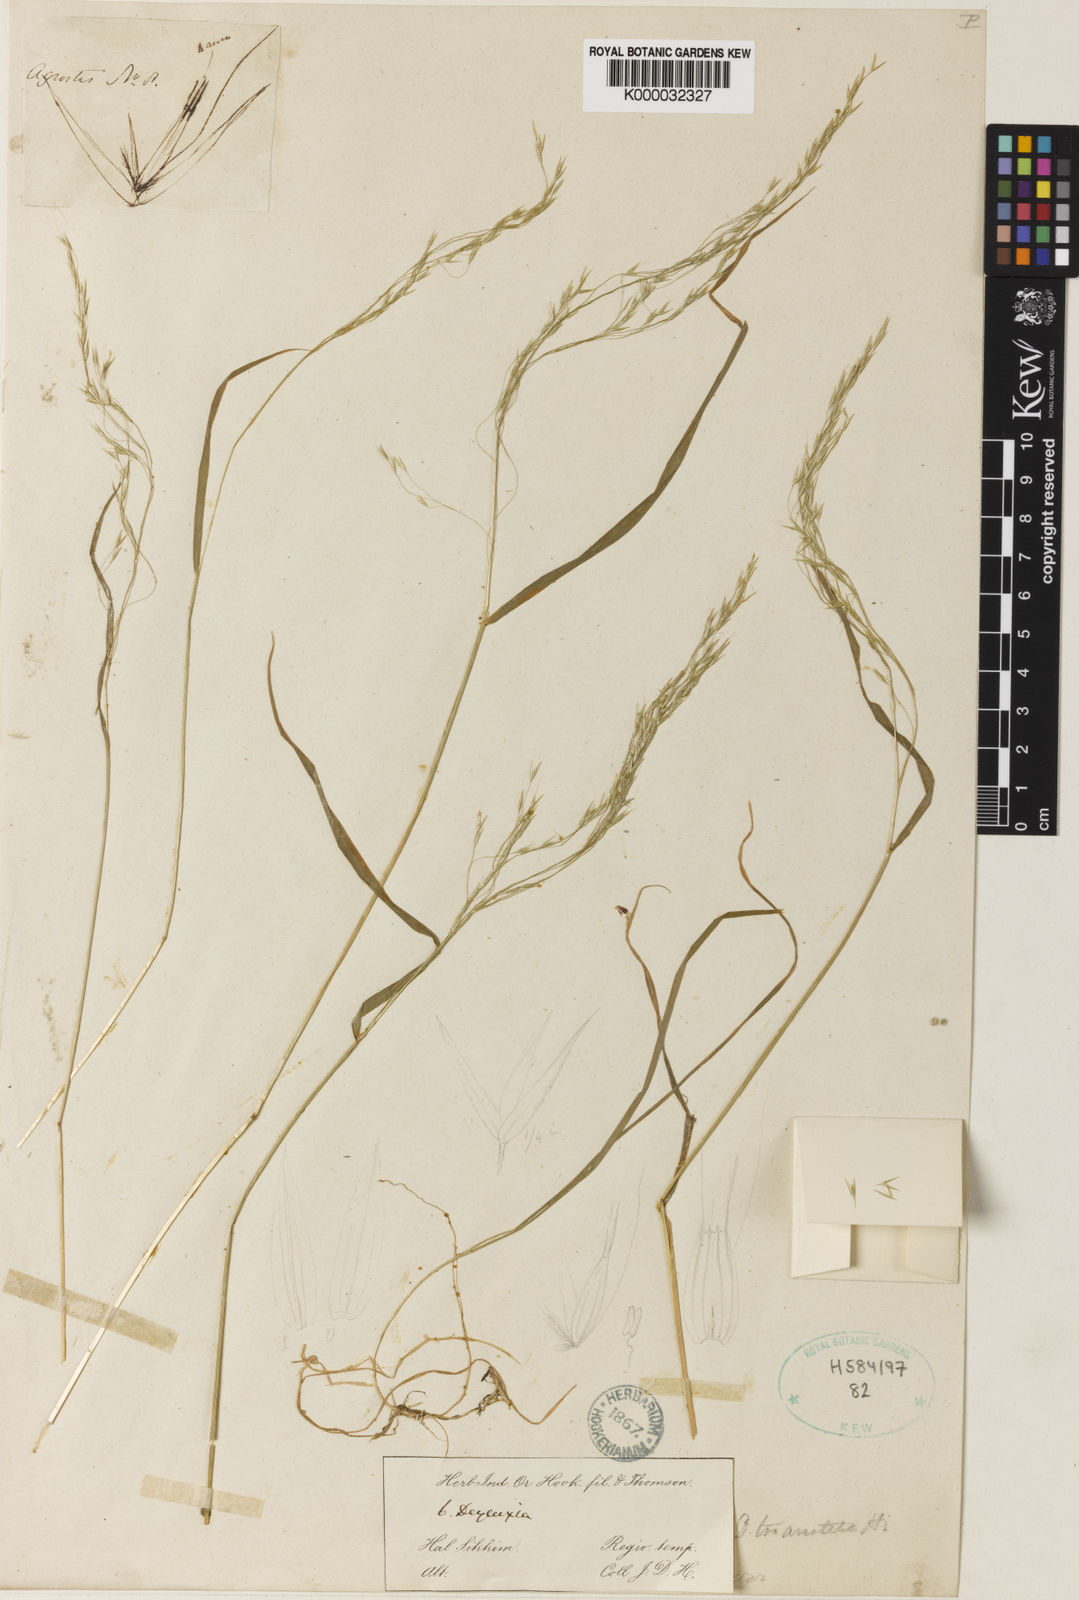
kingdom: Plantae
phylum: Tracheophyta
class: Liliopsida
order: Poales
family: Poaceae
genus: Agrostis
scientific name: Agrostis
